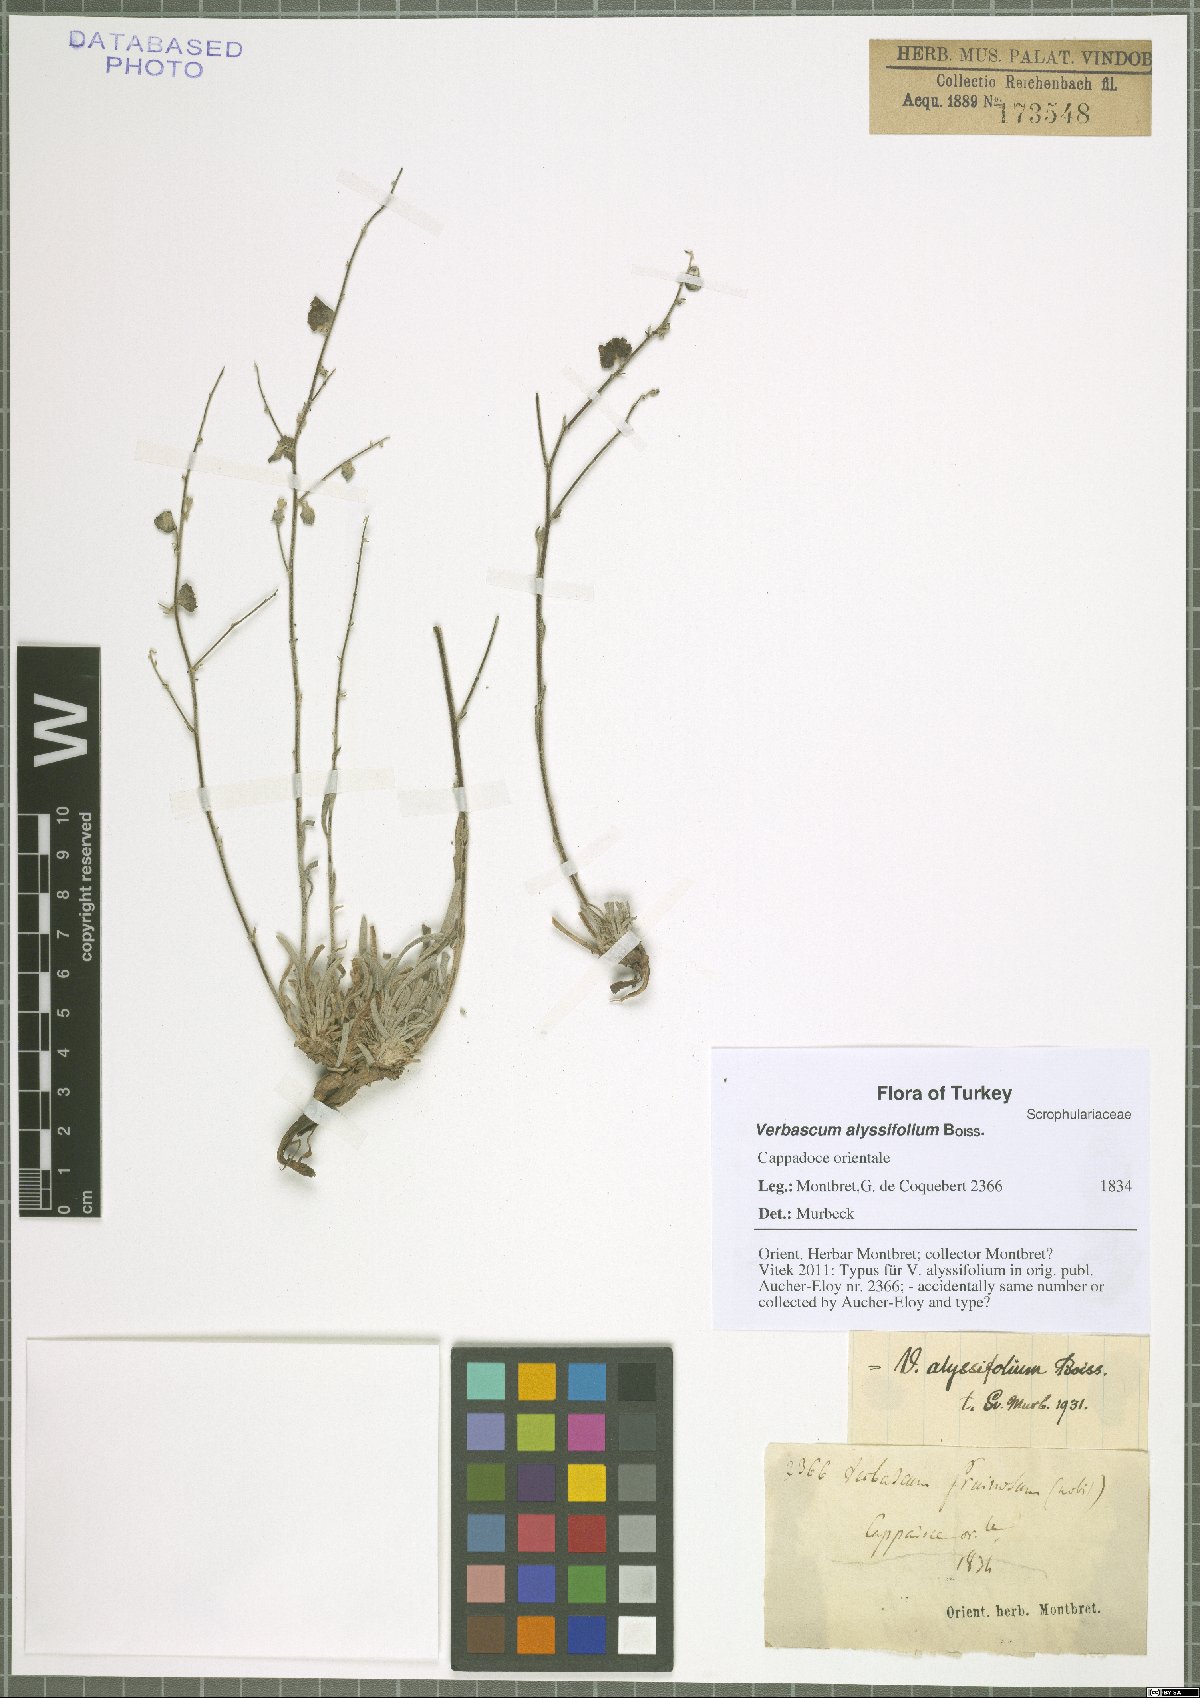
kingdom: Plantae
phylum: Tracheophyta
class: Magnoliopsida
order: Lamiales
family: Scrophulariaceae
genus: Verbascum
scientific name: Verbascum alyssifolium
